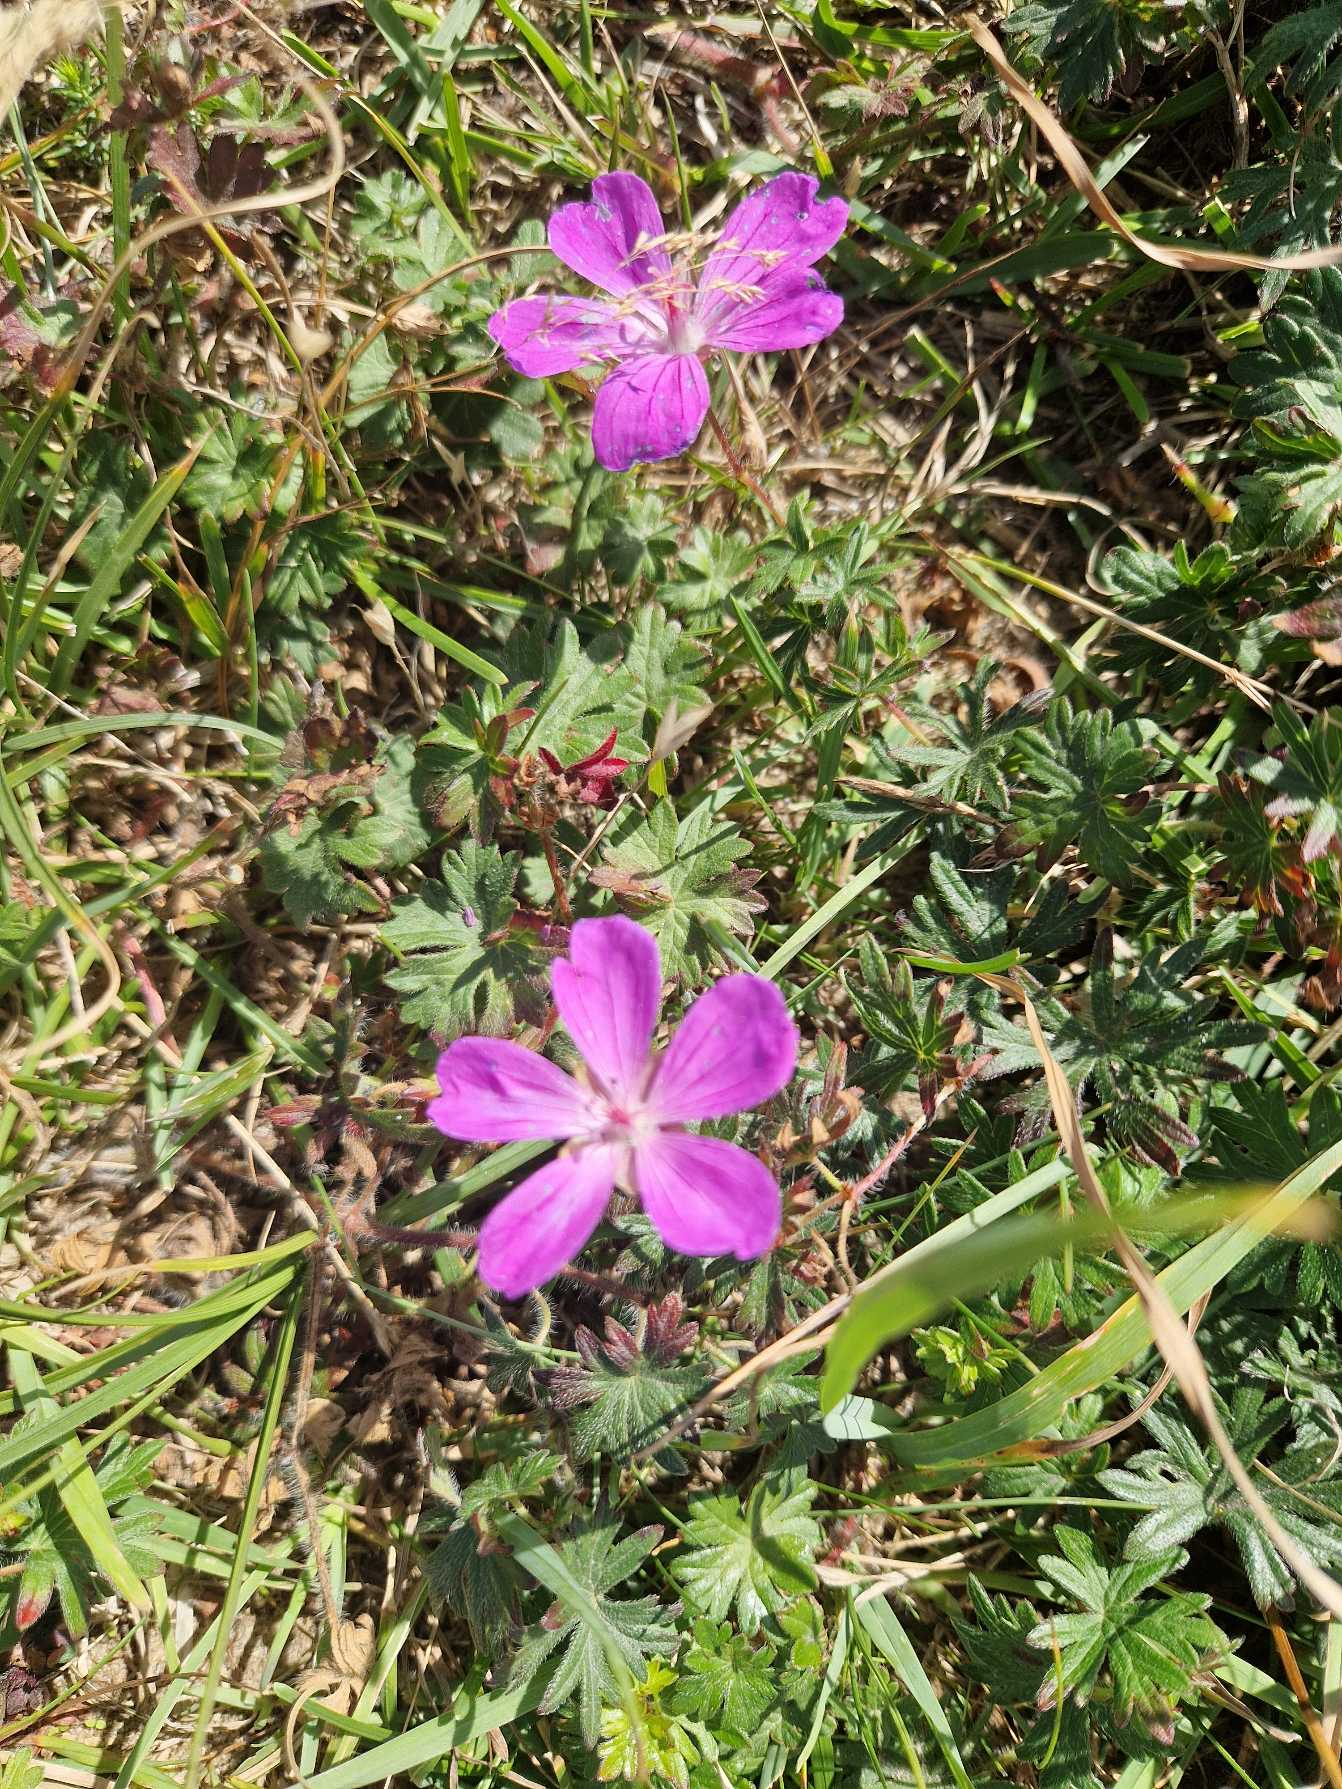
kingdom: Plantae
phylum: Tracheophyta
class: Magnoliopsida
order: Geraniales
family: Geraniaceae
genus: Geranium
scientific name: Geranium sanguineum
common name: Blodrød storkenæb
